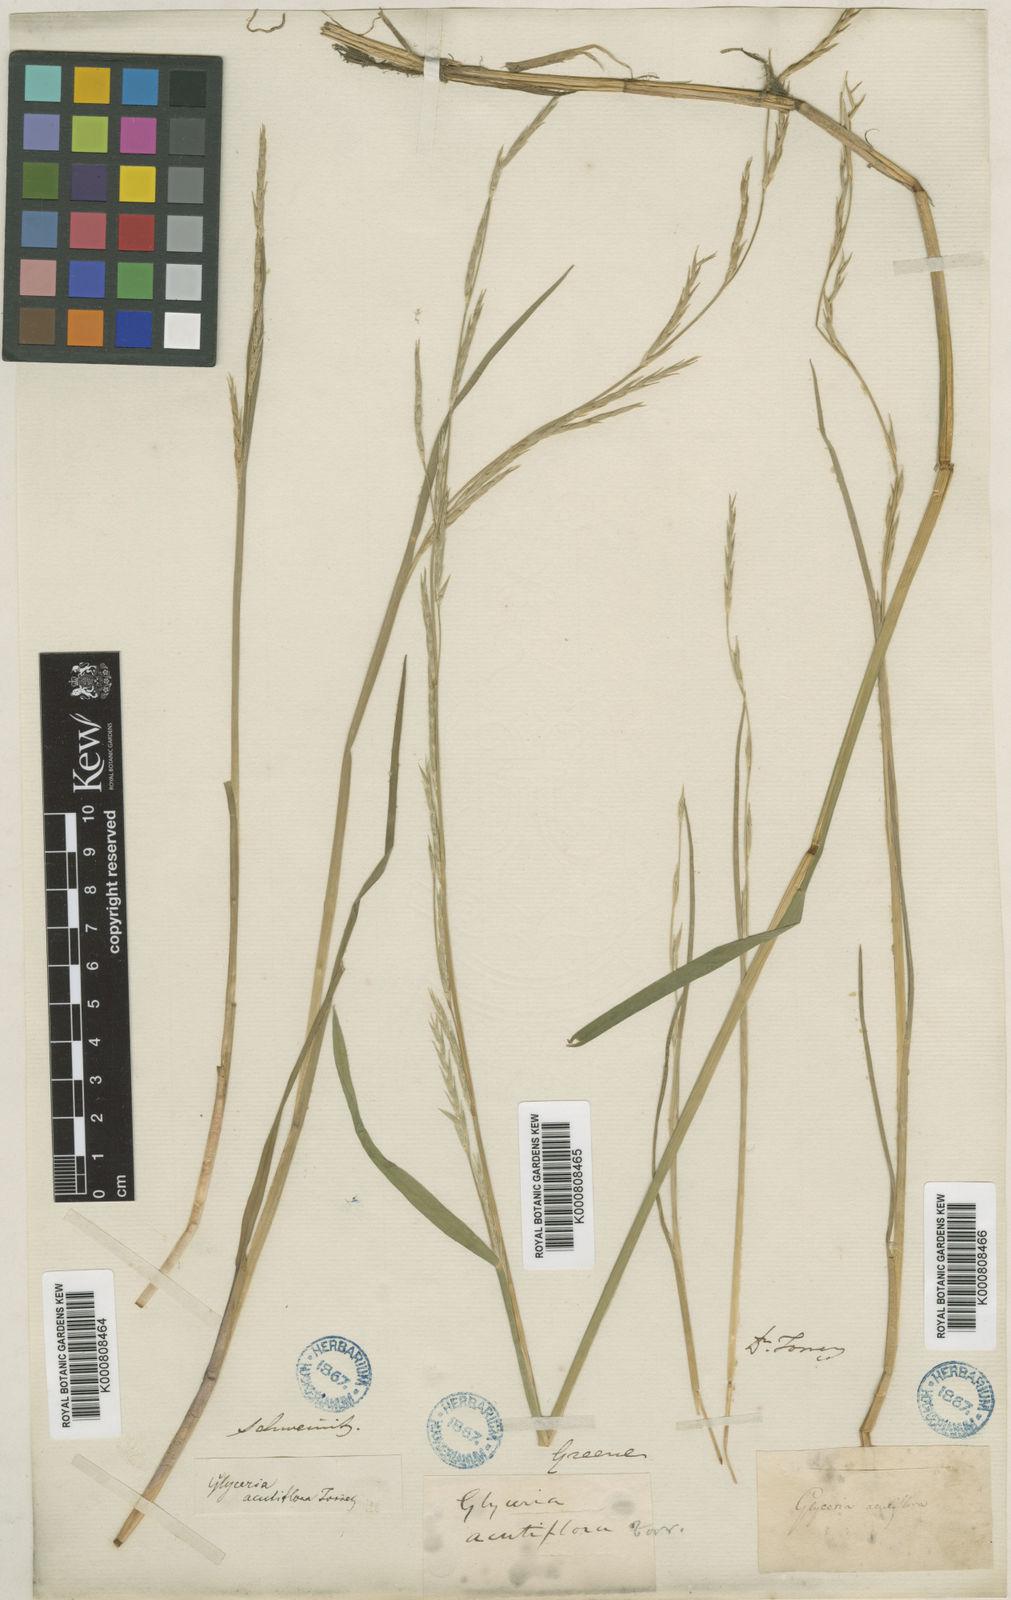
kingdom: Plantae
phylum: Tracheophyta
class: Liliopsida
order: Poales
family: Poaceae
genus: Glyceria
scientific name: Glyceria acutiflora
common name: Sharp-glumed manna-grass
